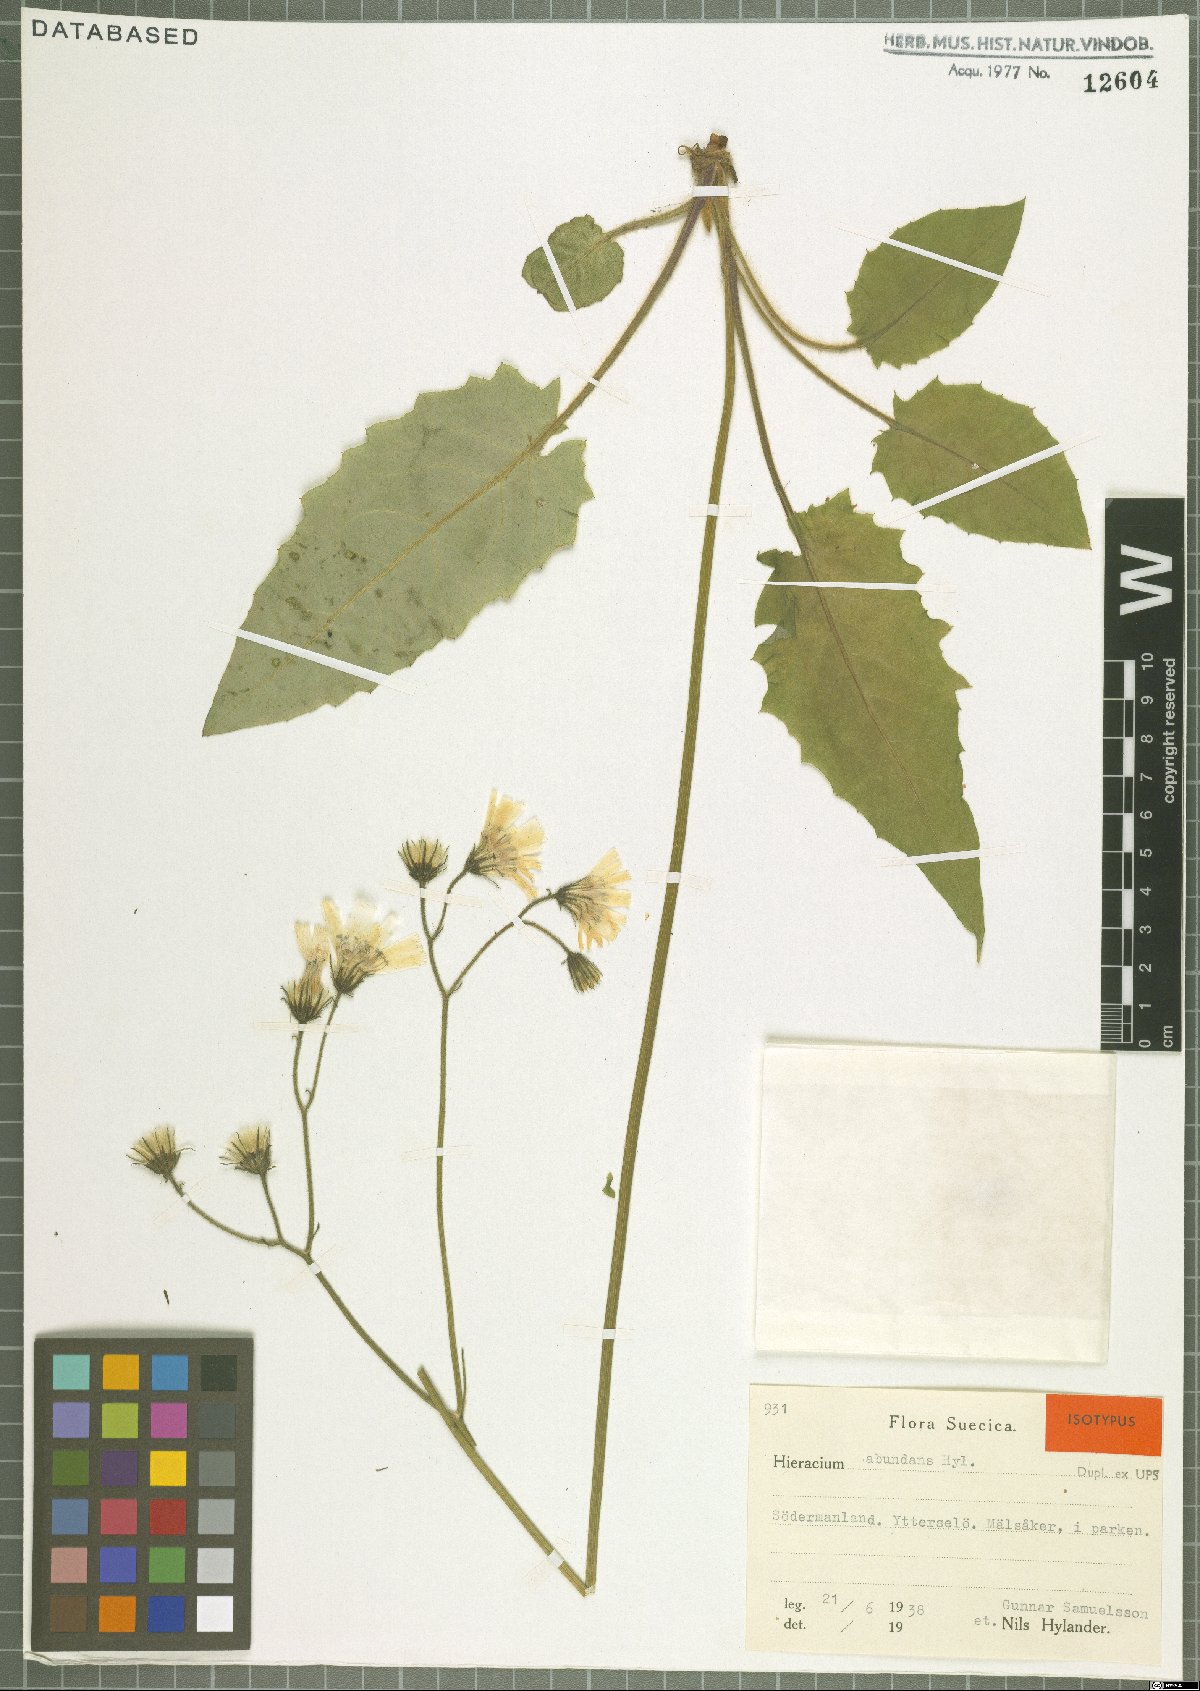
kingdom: Plantae
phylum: Tracheophyta
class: Magnoliopsida
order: Asterales
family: Asteraceae
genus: Hieracium
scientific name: Hieracium aterrimum
